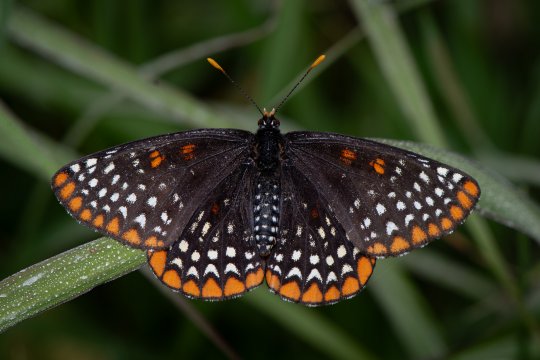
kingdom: Animalia
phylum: Arthropoda
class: Insecta
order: Lepidoptera
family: Nymphalidae
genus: Euphydryas
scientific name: Euphydryas phaeton
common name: Baltimore Checkerspot
